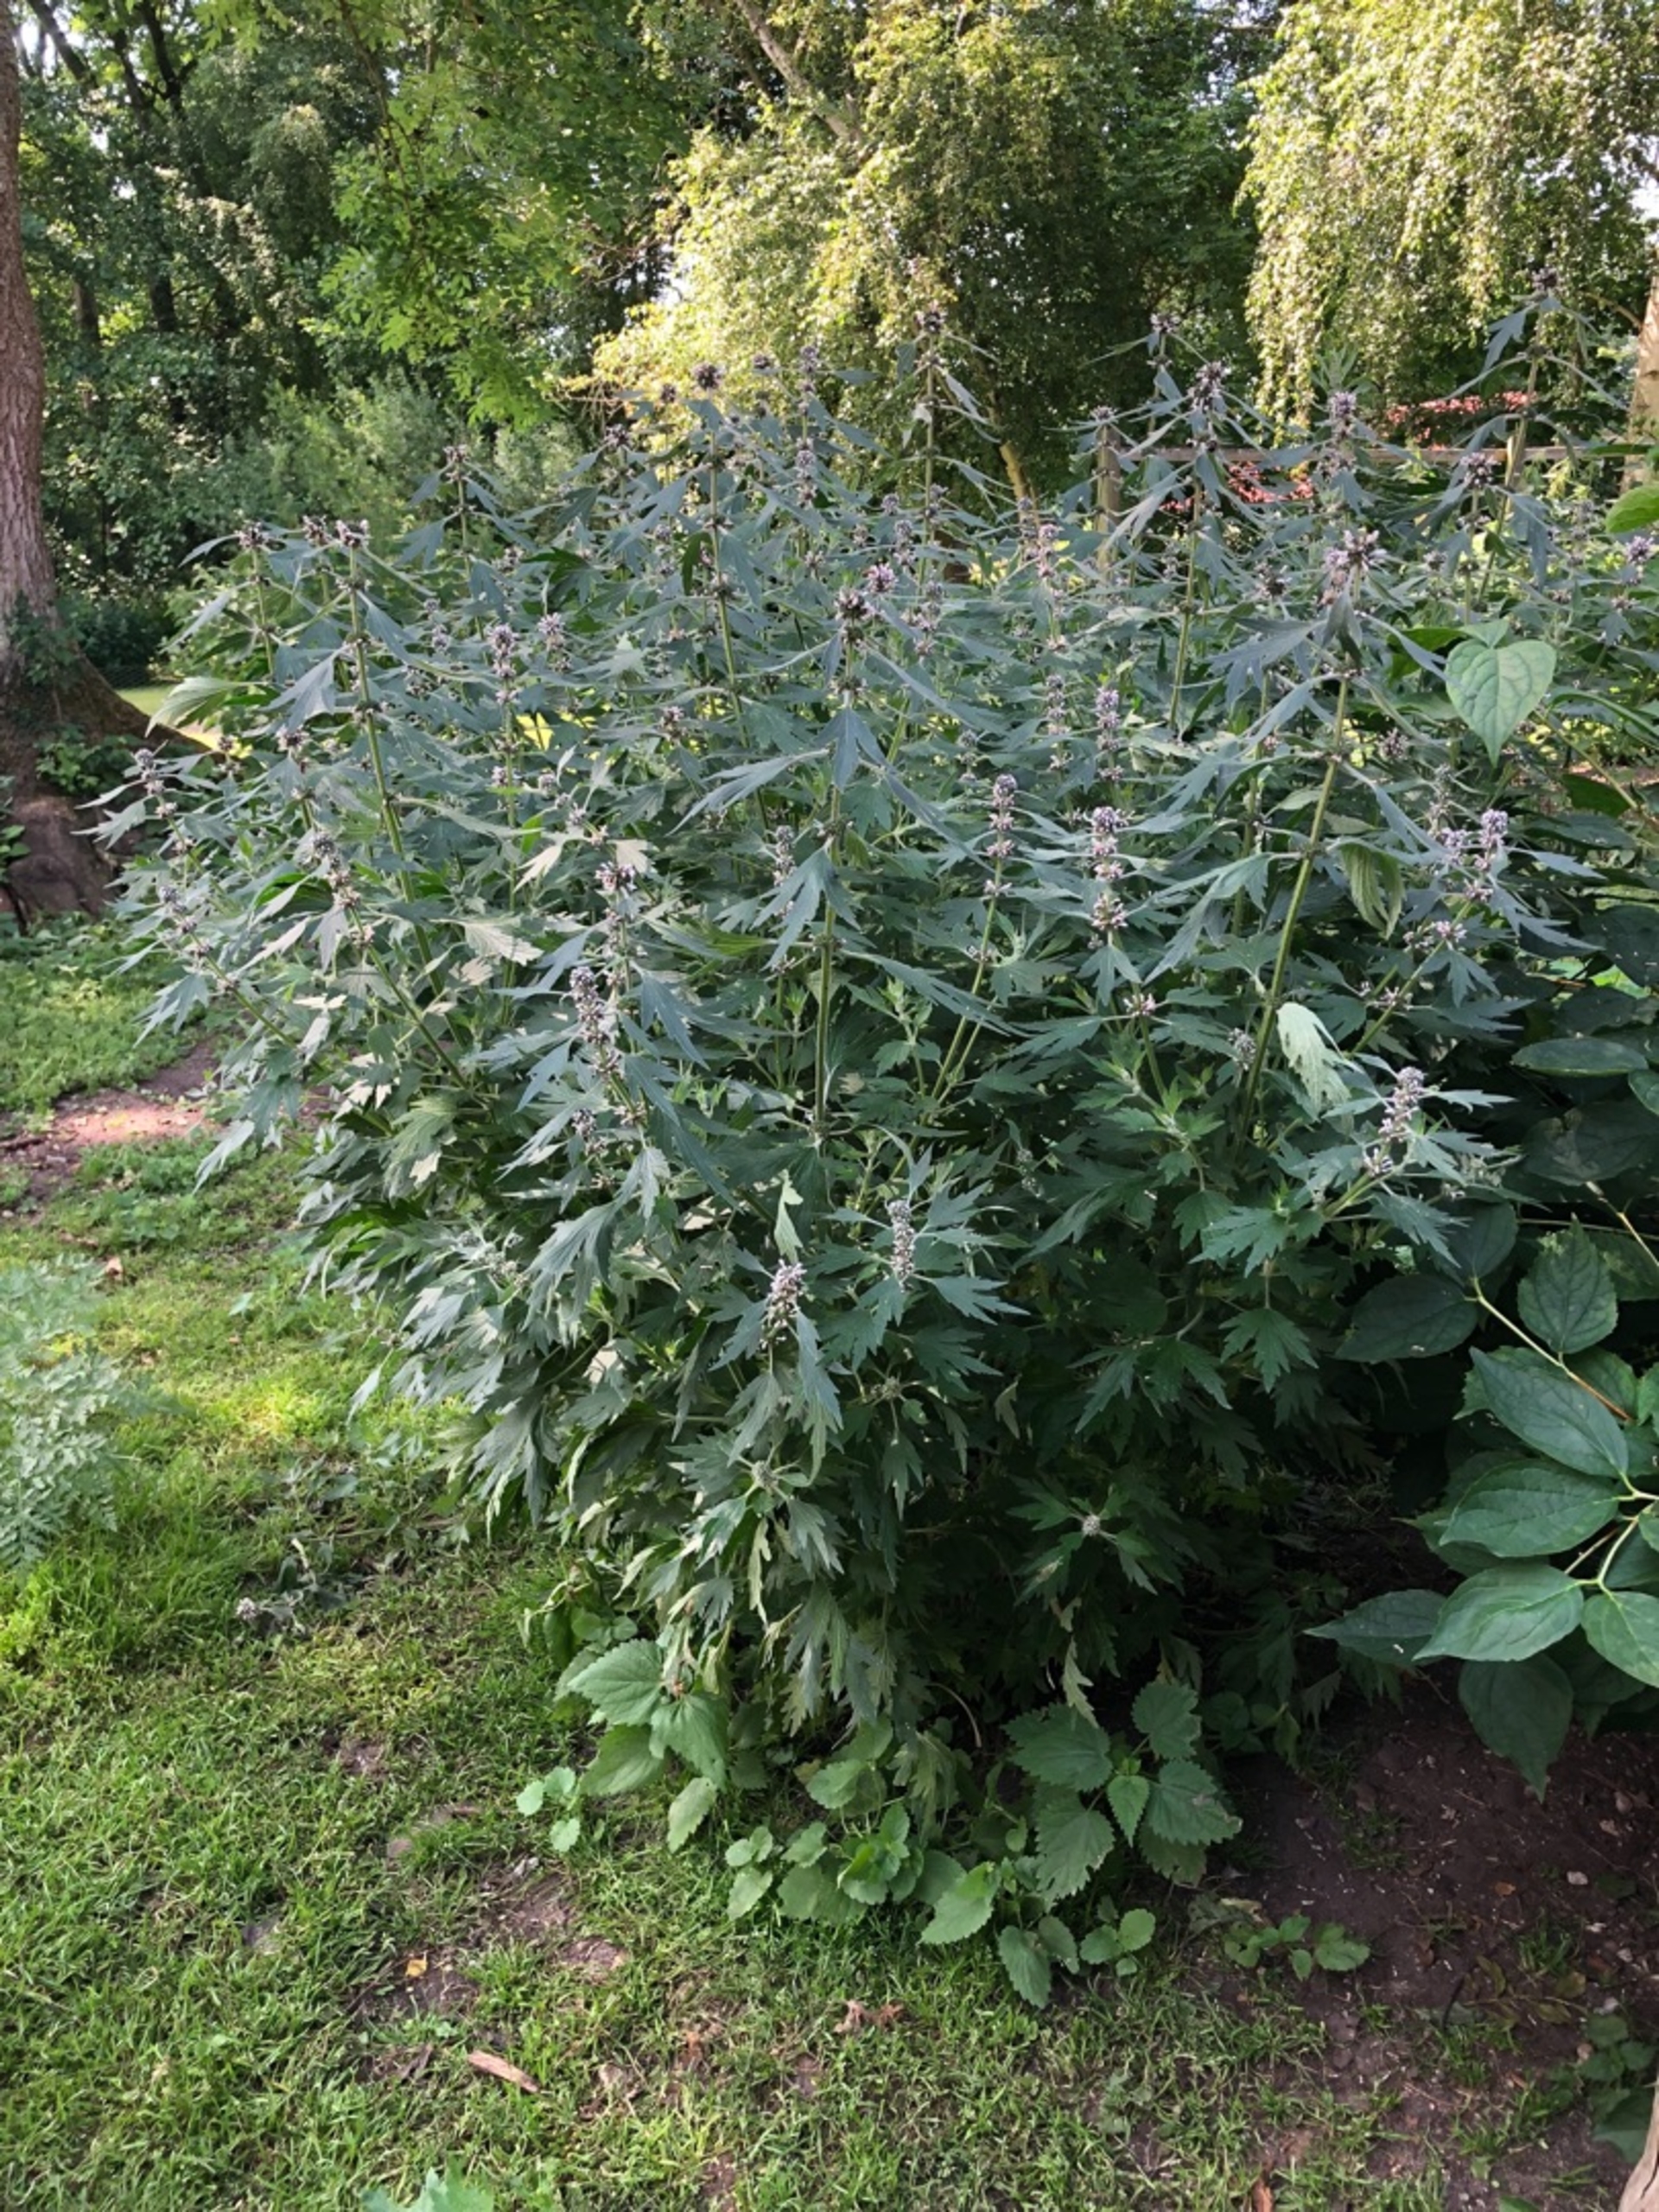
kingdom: Plantae
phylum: Tracheophyta
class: Magnoliopsida
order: Lamiales
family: Lamiaceae
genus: Leonurus
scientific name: Leonurus cardiaca
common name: Hjertespand
